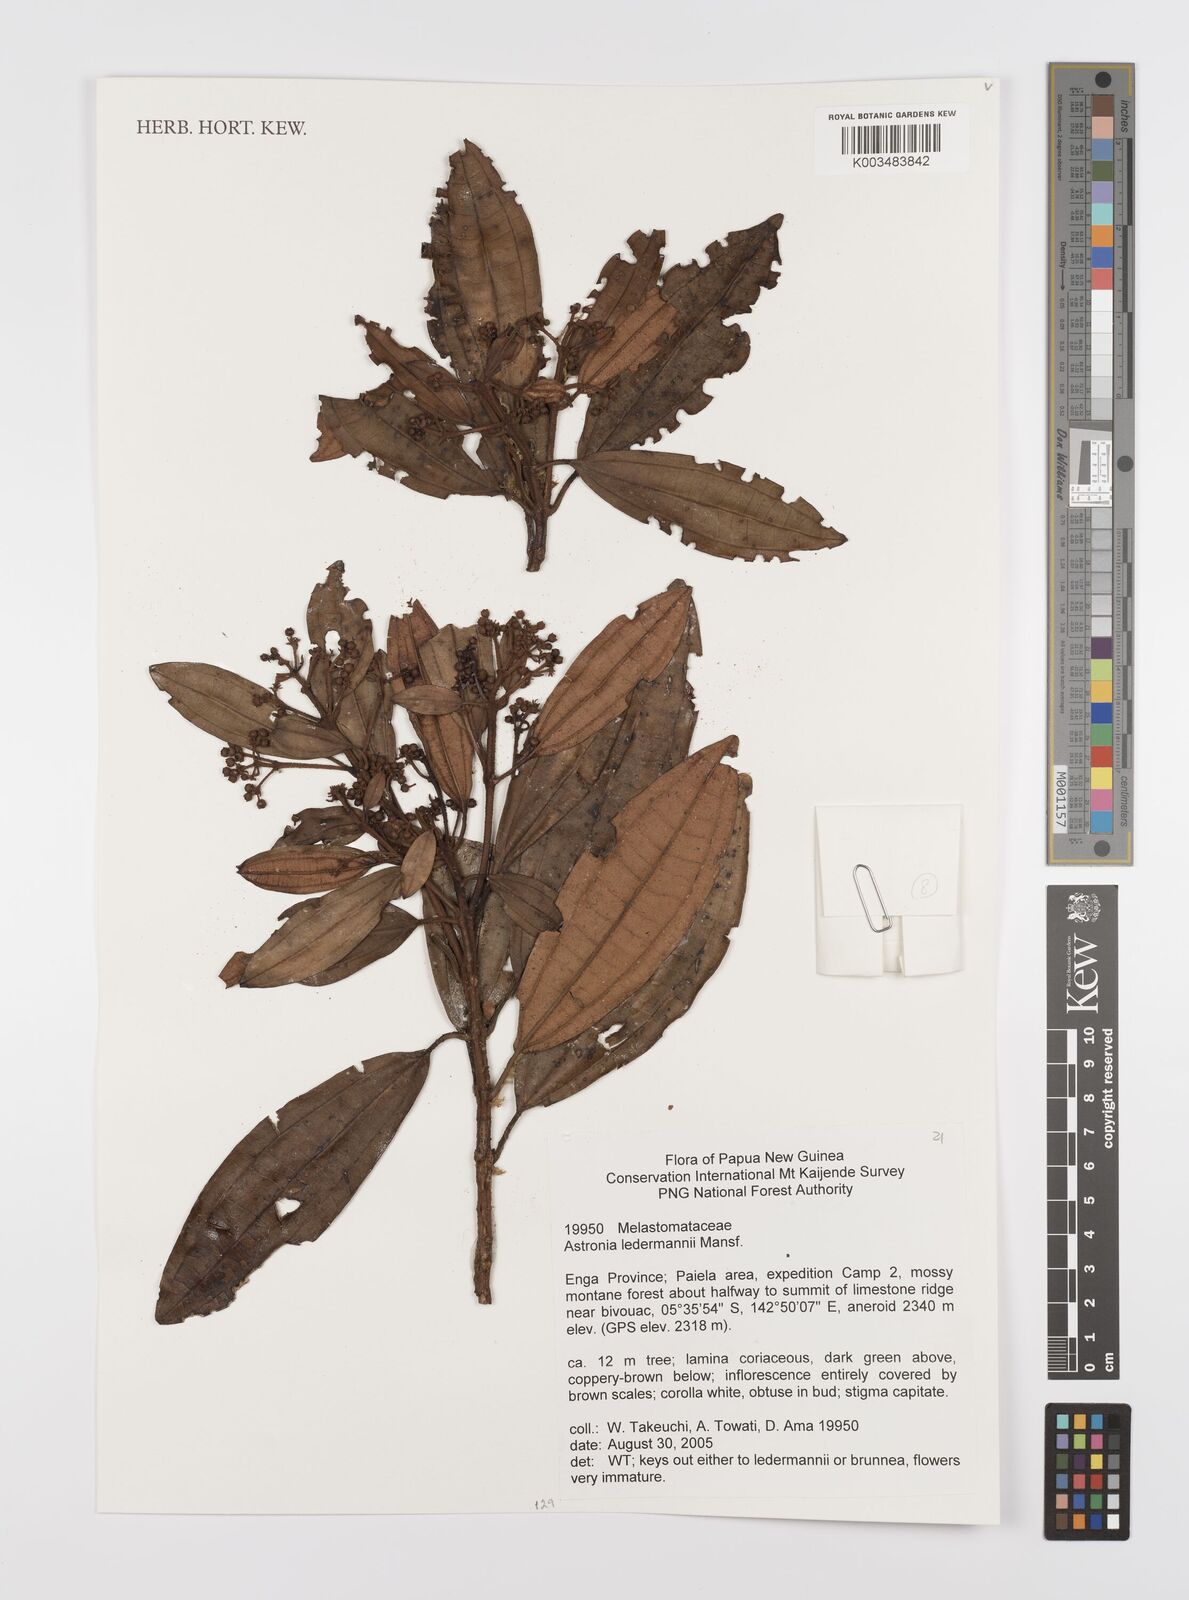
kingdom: Plantae
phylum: Tracheophyta
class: Magnoliopsida
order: Myrtales
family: Melastomataceae
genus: Astronia
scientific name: Astronia ledermannii
